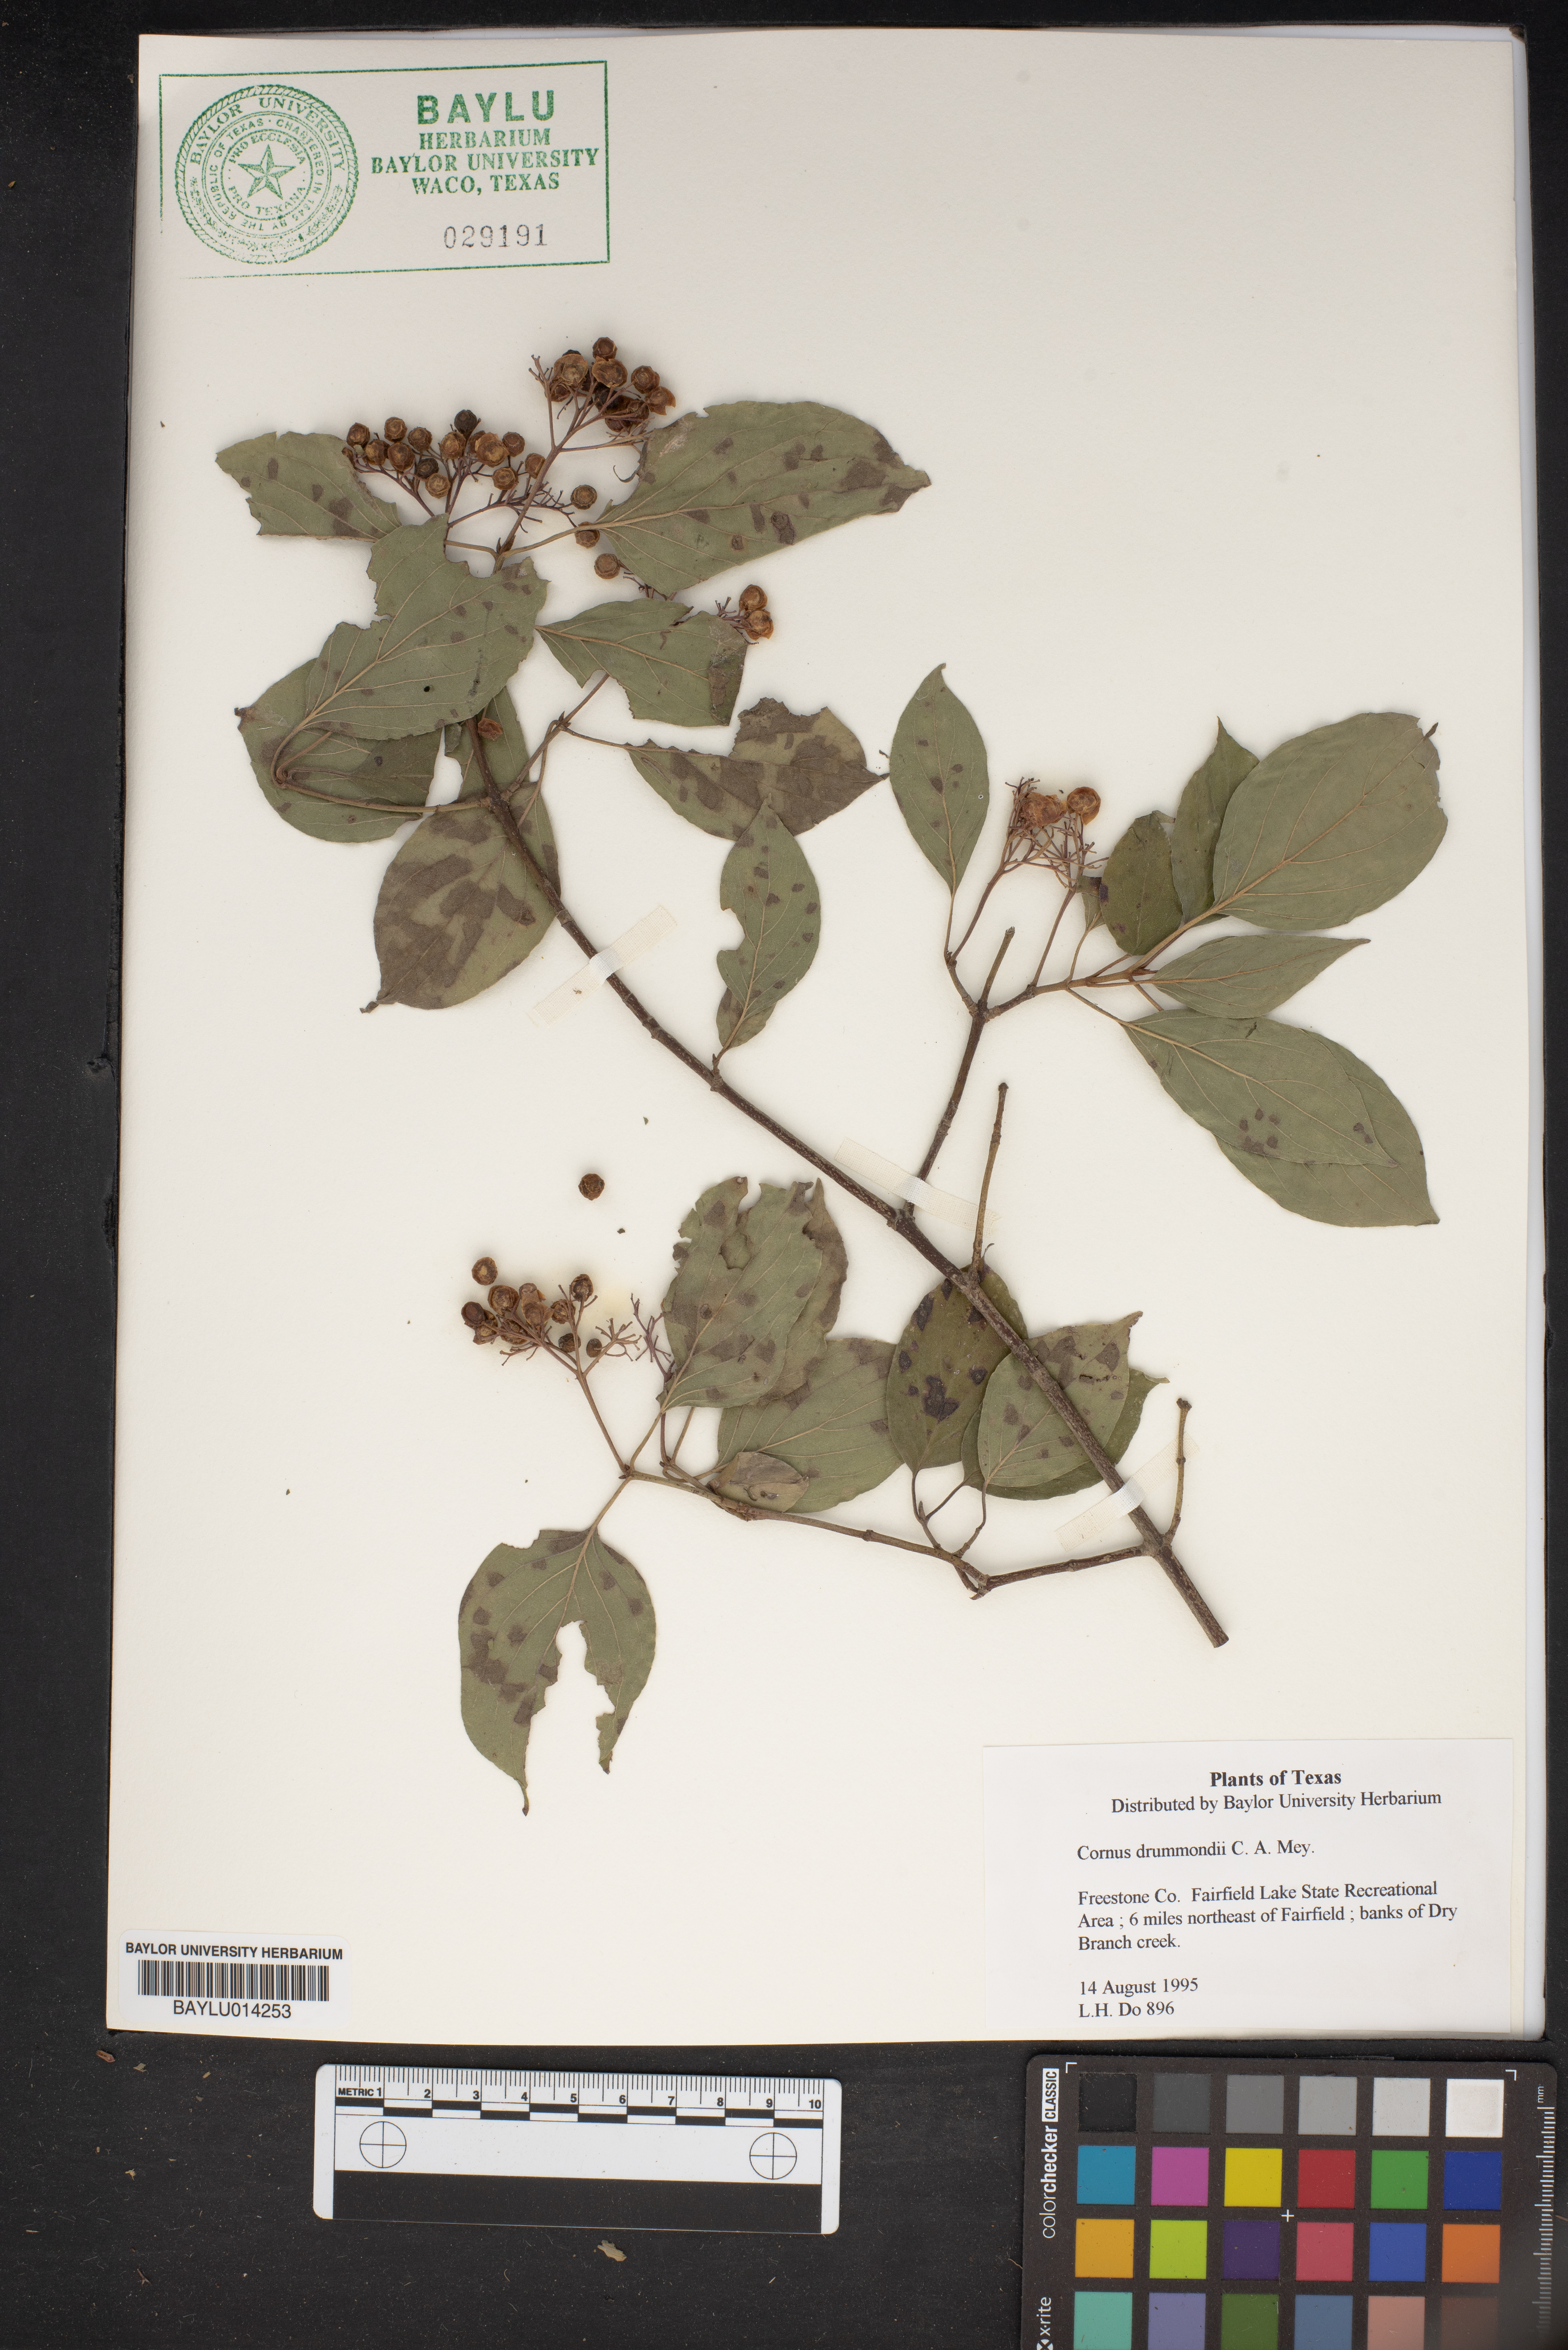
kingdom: Plantae
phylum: Tracheophyta
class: Magnoliopsida
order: Cornales
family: Cornaceae
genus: Cornus
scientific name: Cornus drummondii
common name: Rough-leaf dogwood
